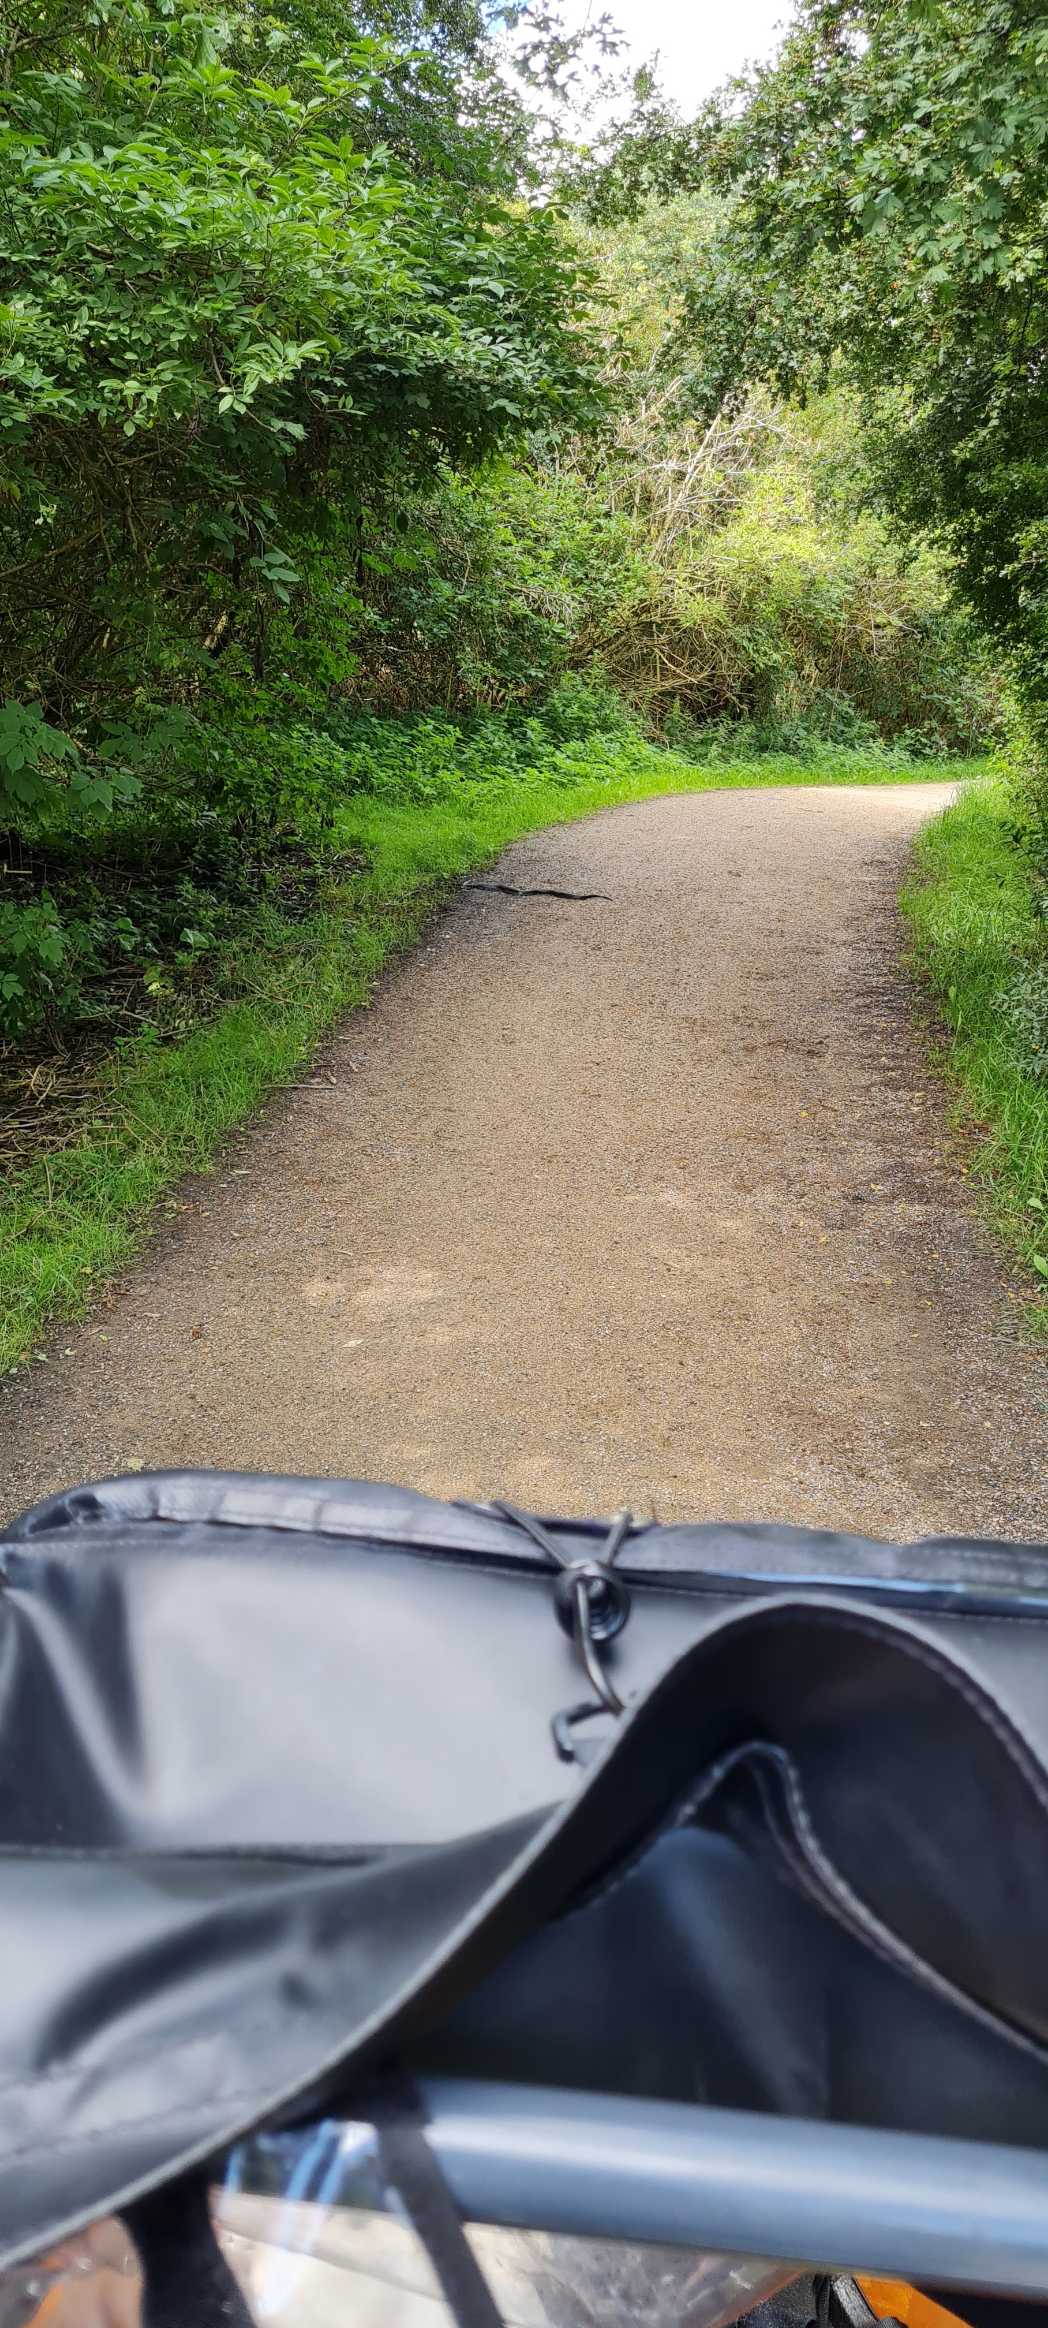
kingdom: Animalia
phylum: Chordata
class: Squamata
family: Colubridae
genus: Natrix
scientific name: Natrix natrix
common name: Snog
